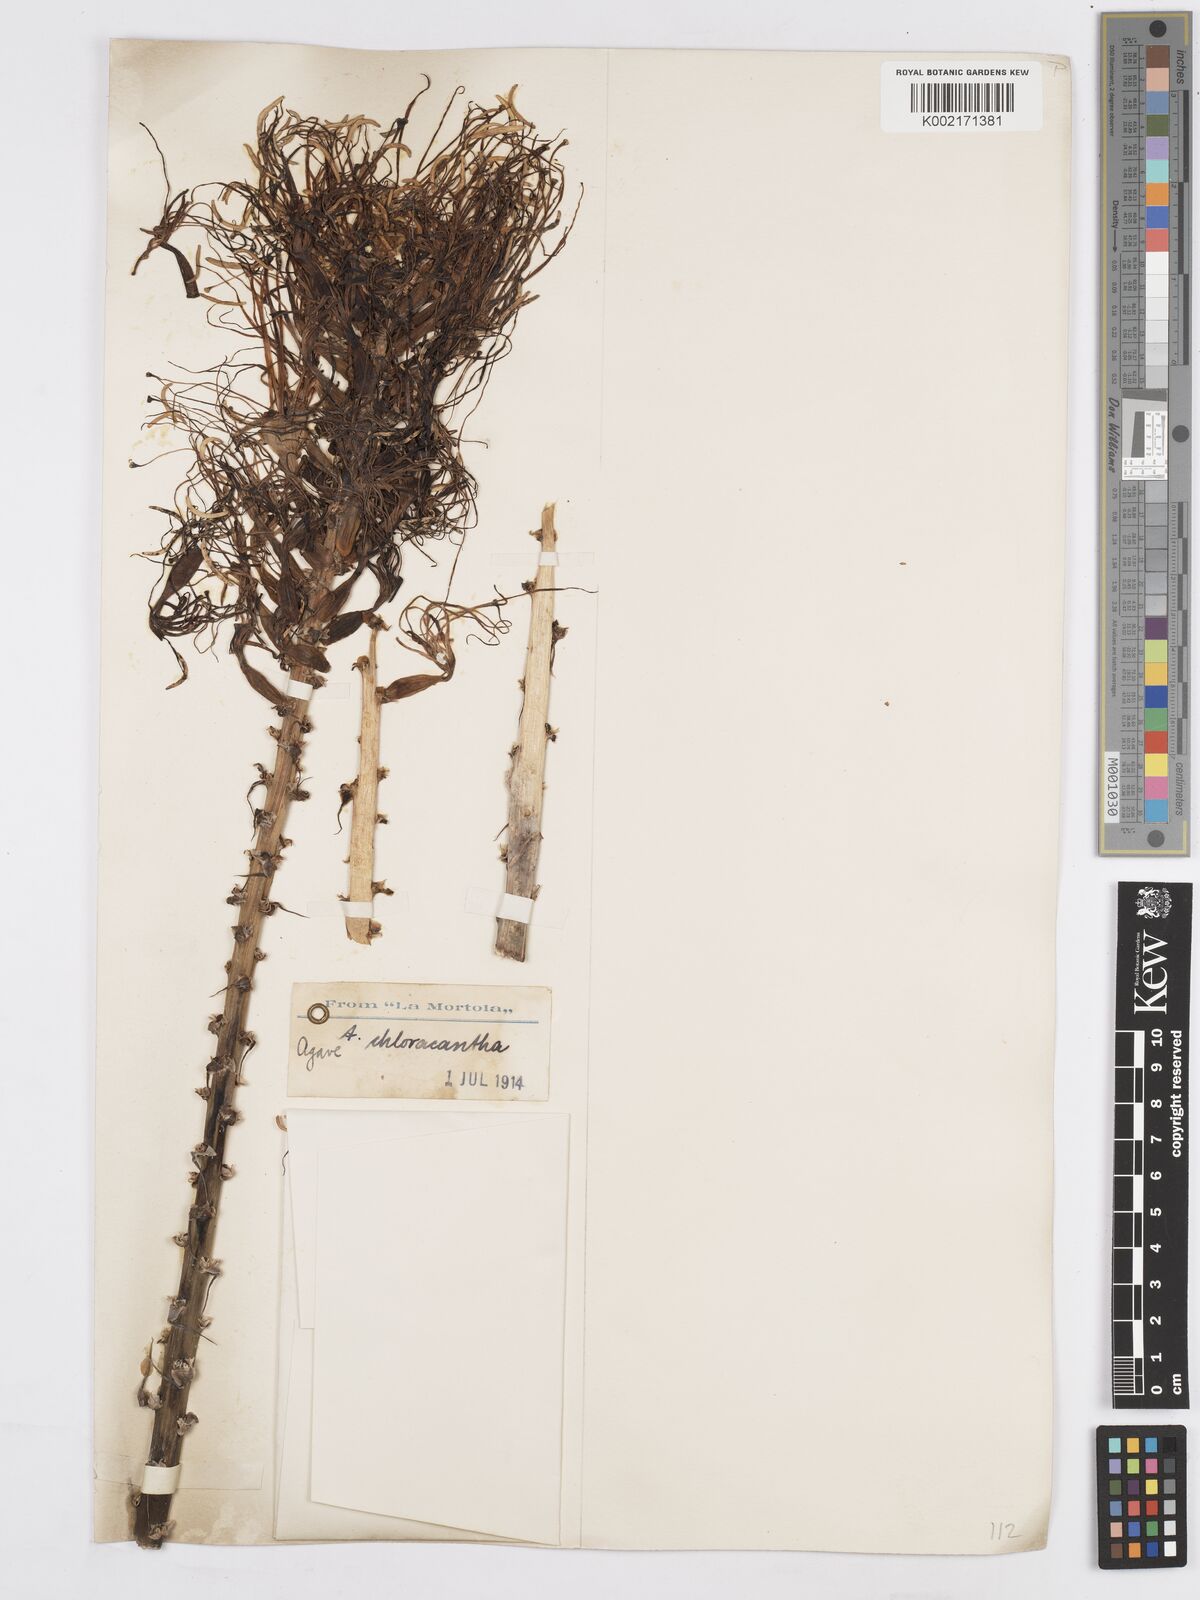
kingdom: Plantae
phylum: Tracheophyta
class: Liliopsida
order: Asparagales
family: Asparagaceae
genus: Agave
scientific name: Agave polyacantha
